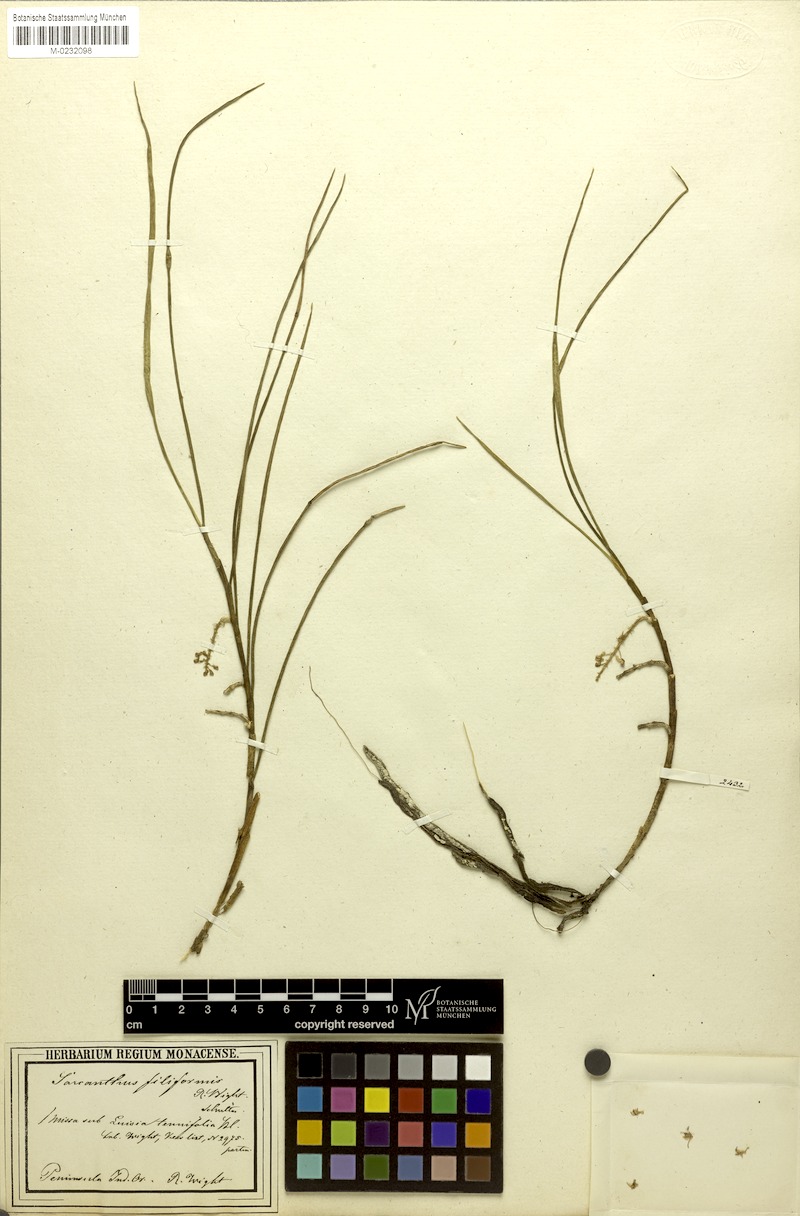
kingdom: Plantae
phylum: Tracheophyta
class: Liliopsida
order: Asparagales
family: Orchidaceae
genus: Cleisostomopsis
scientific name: Cleisostomopsis filiformis
